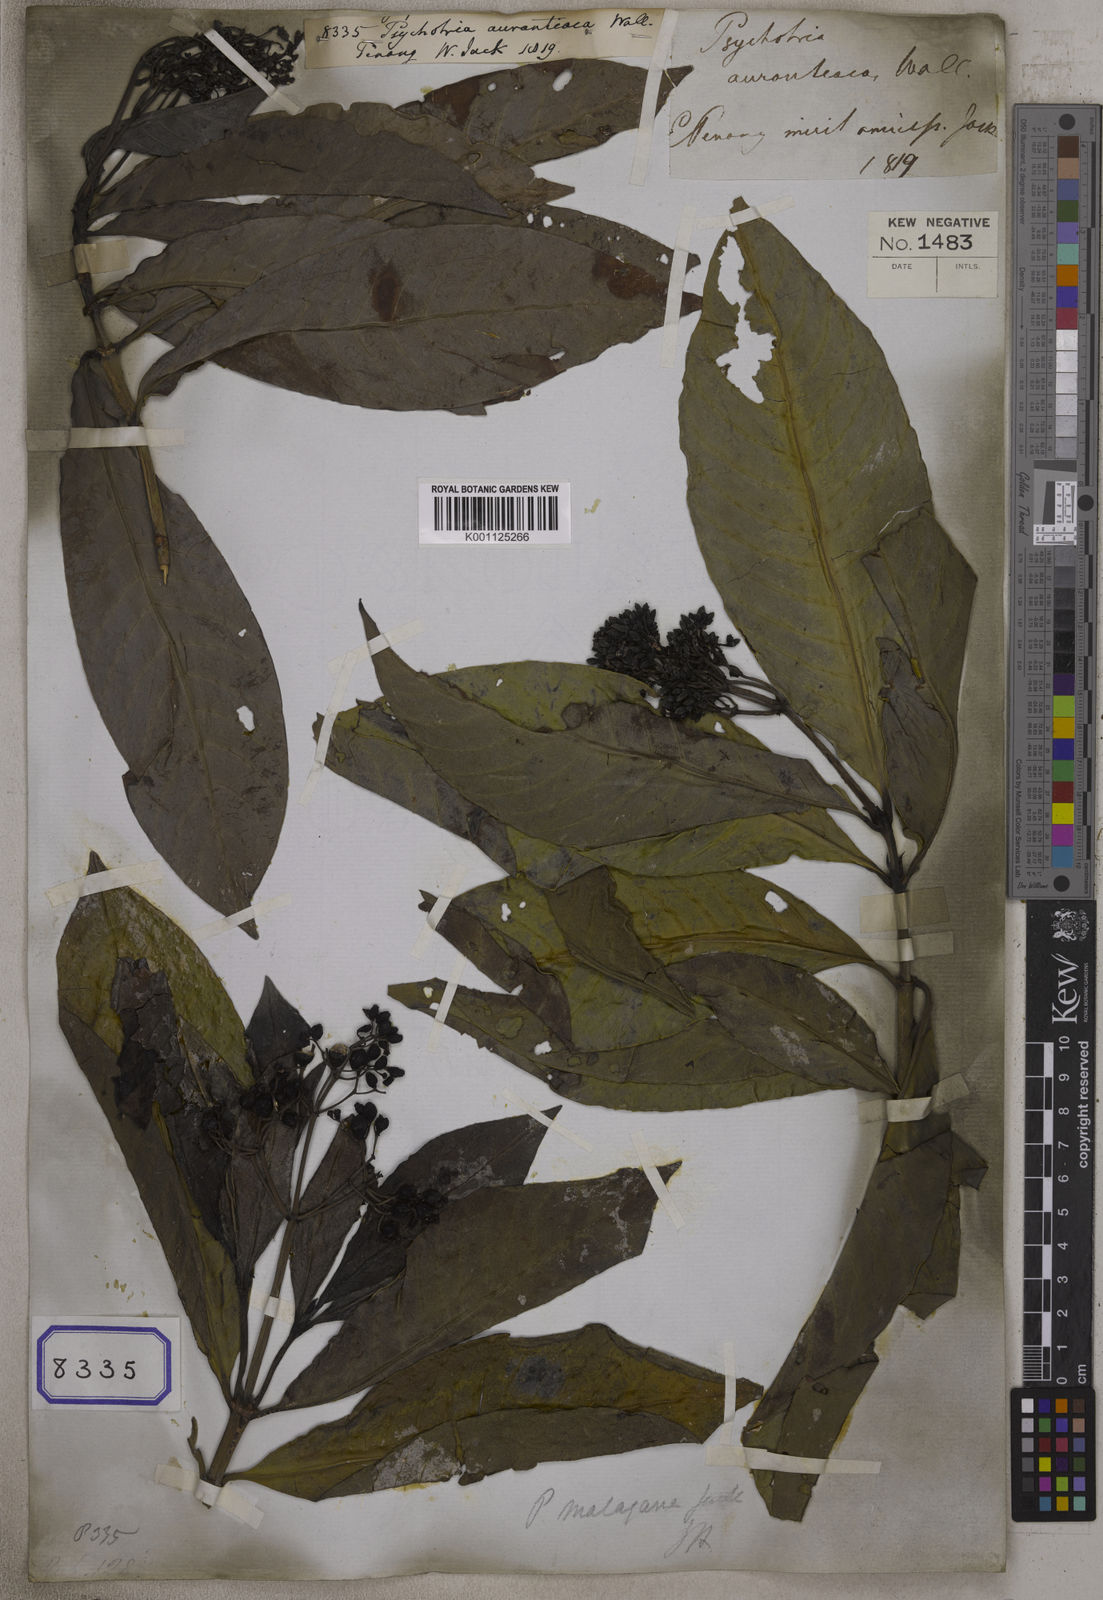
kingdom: Plantae
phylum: Tracheophyta
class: Magnoliopsida
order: Gentianales
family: Rubiaceae
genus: Psychotria
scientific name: Psychotria malayana
